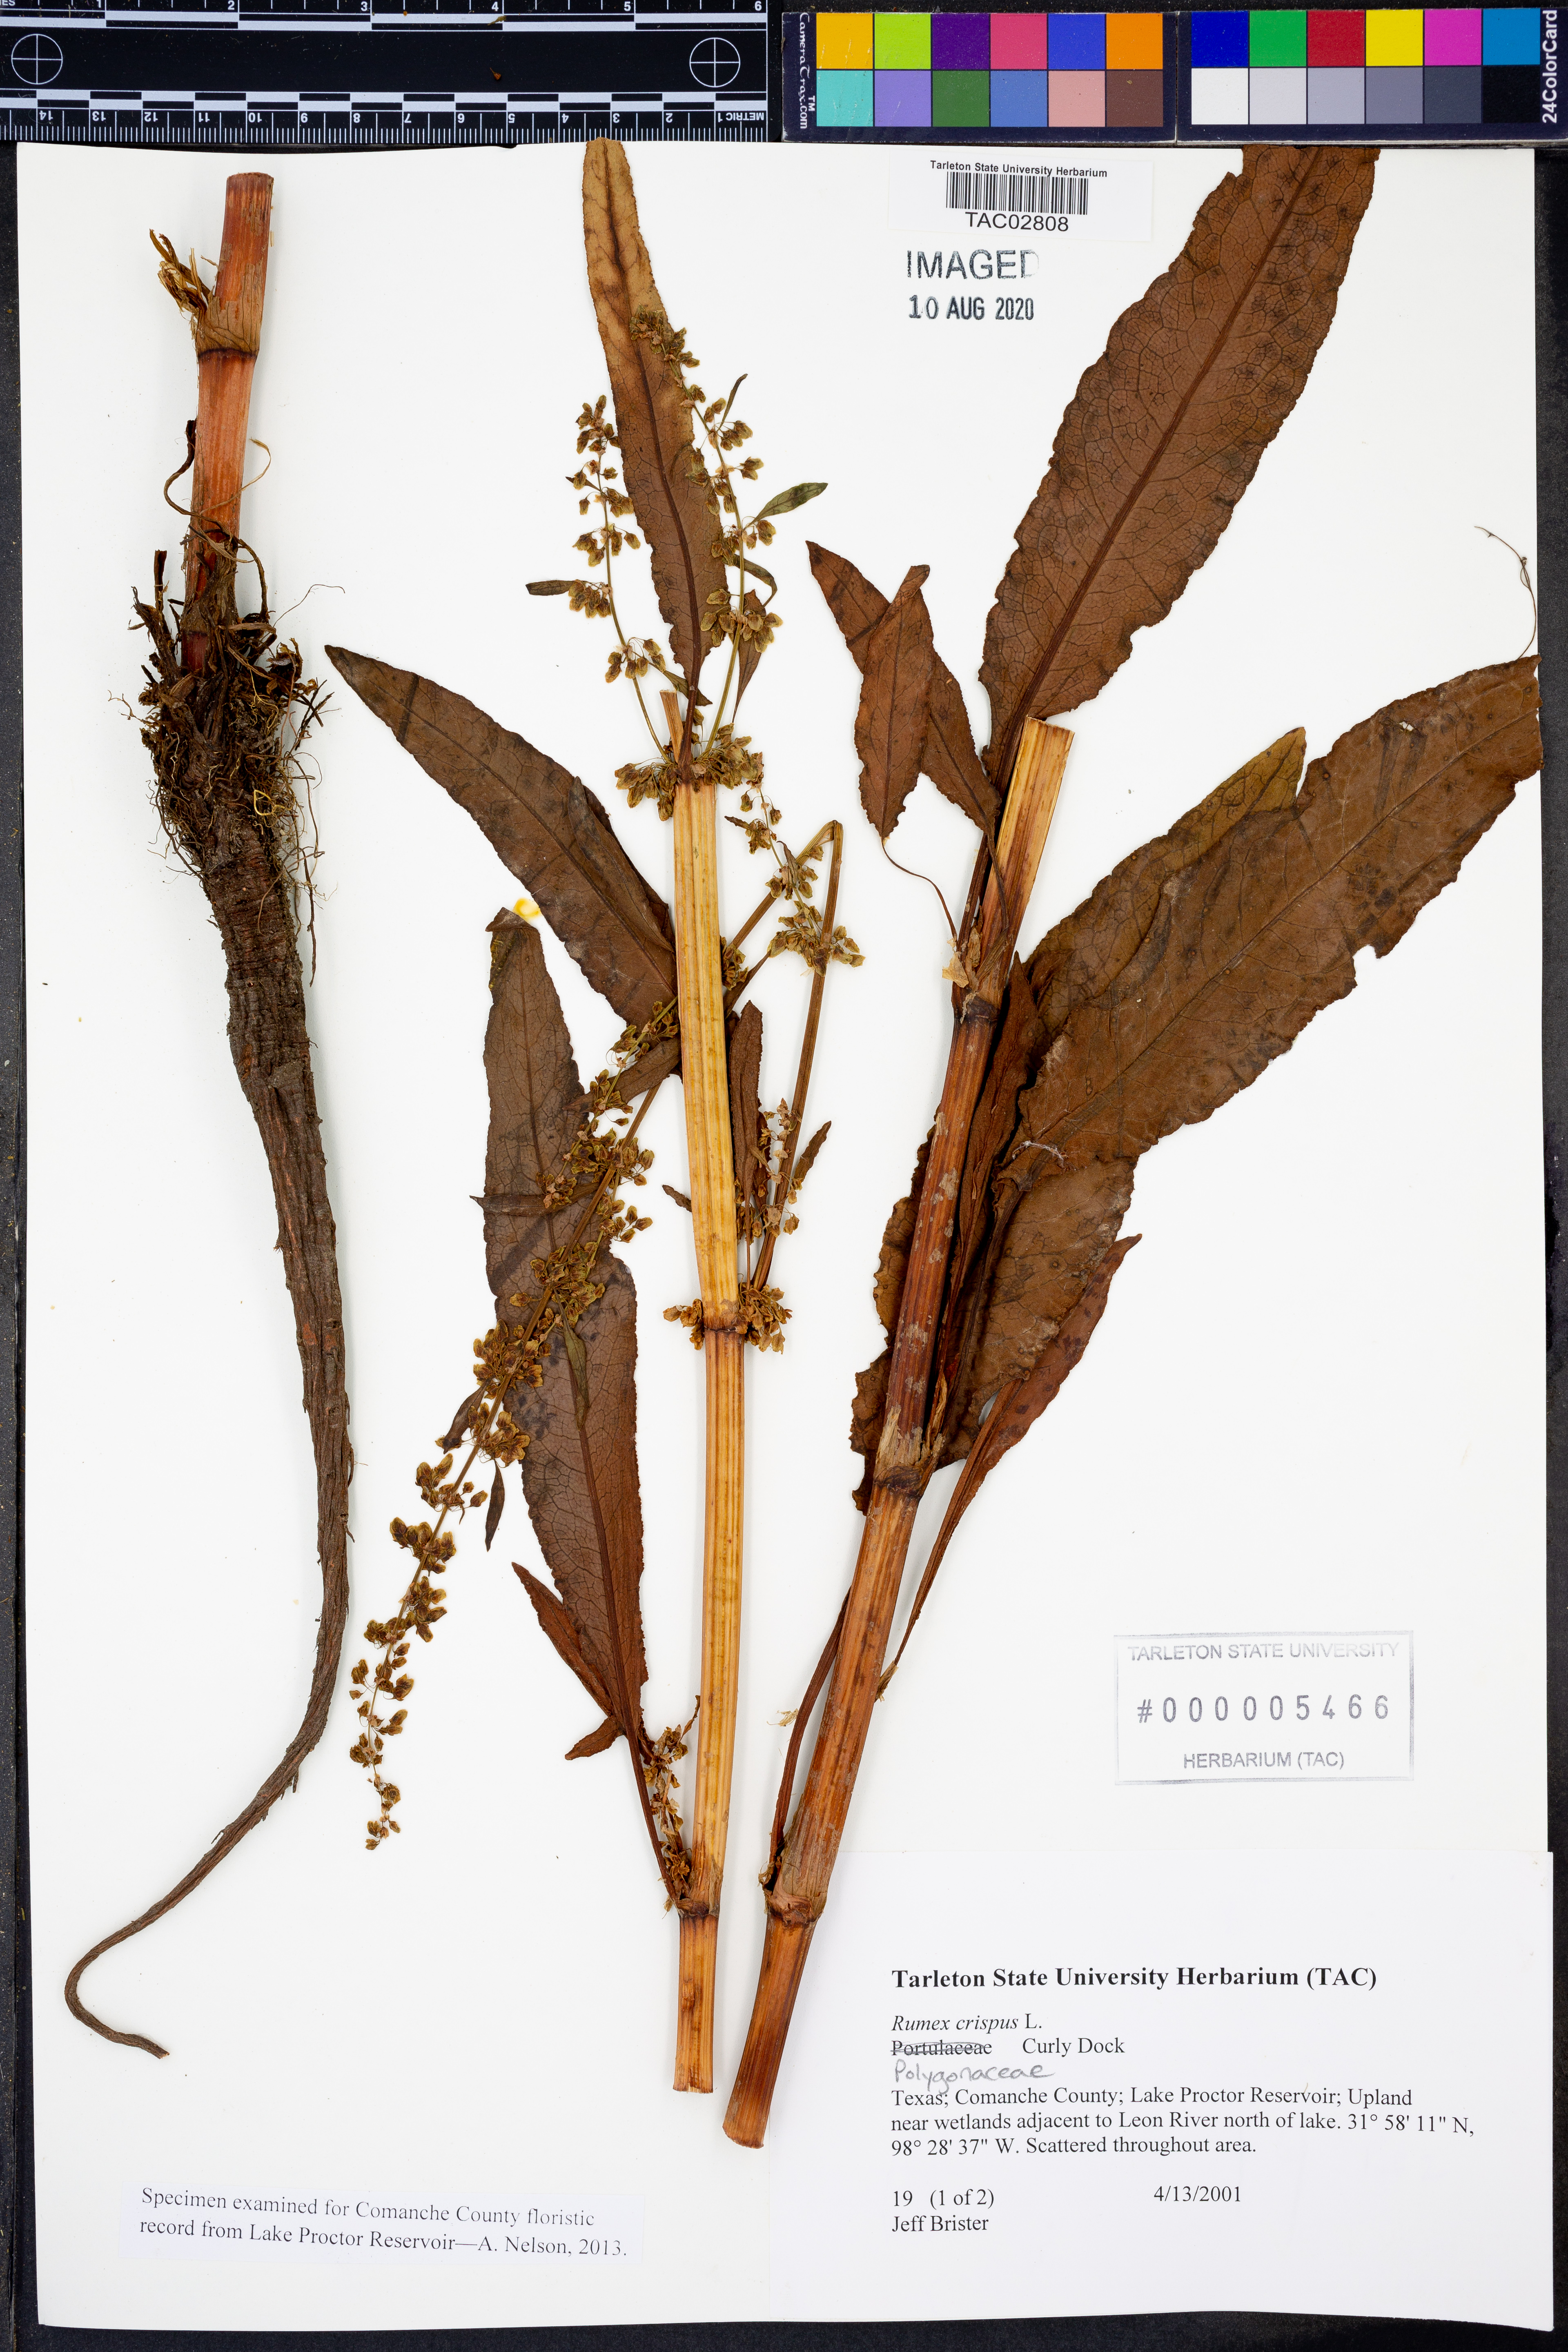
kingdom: Plantae
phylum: Tracheophyta
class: Magnoliopsida
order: Caryophyllales
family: Polygonaceae
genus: Rumex
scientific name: Rumex crispus
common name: Curled dock
